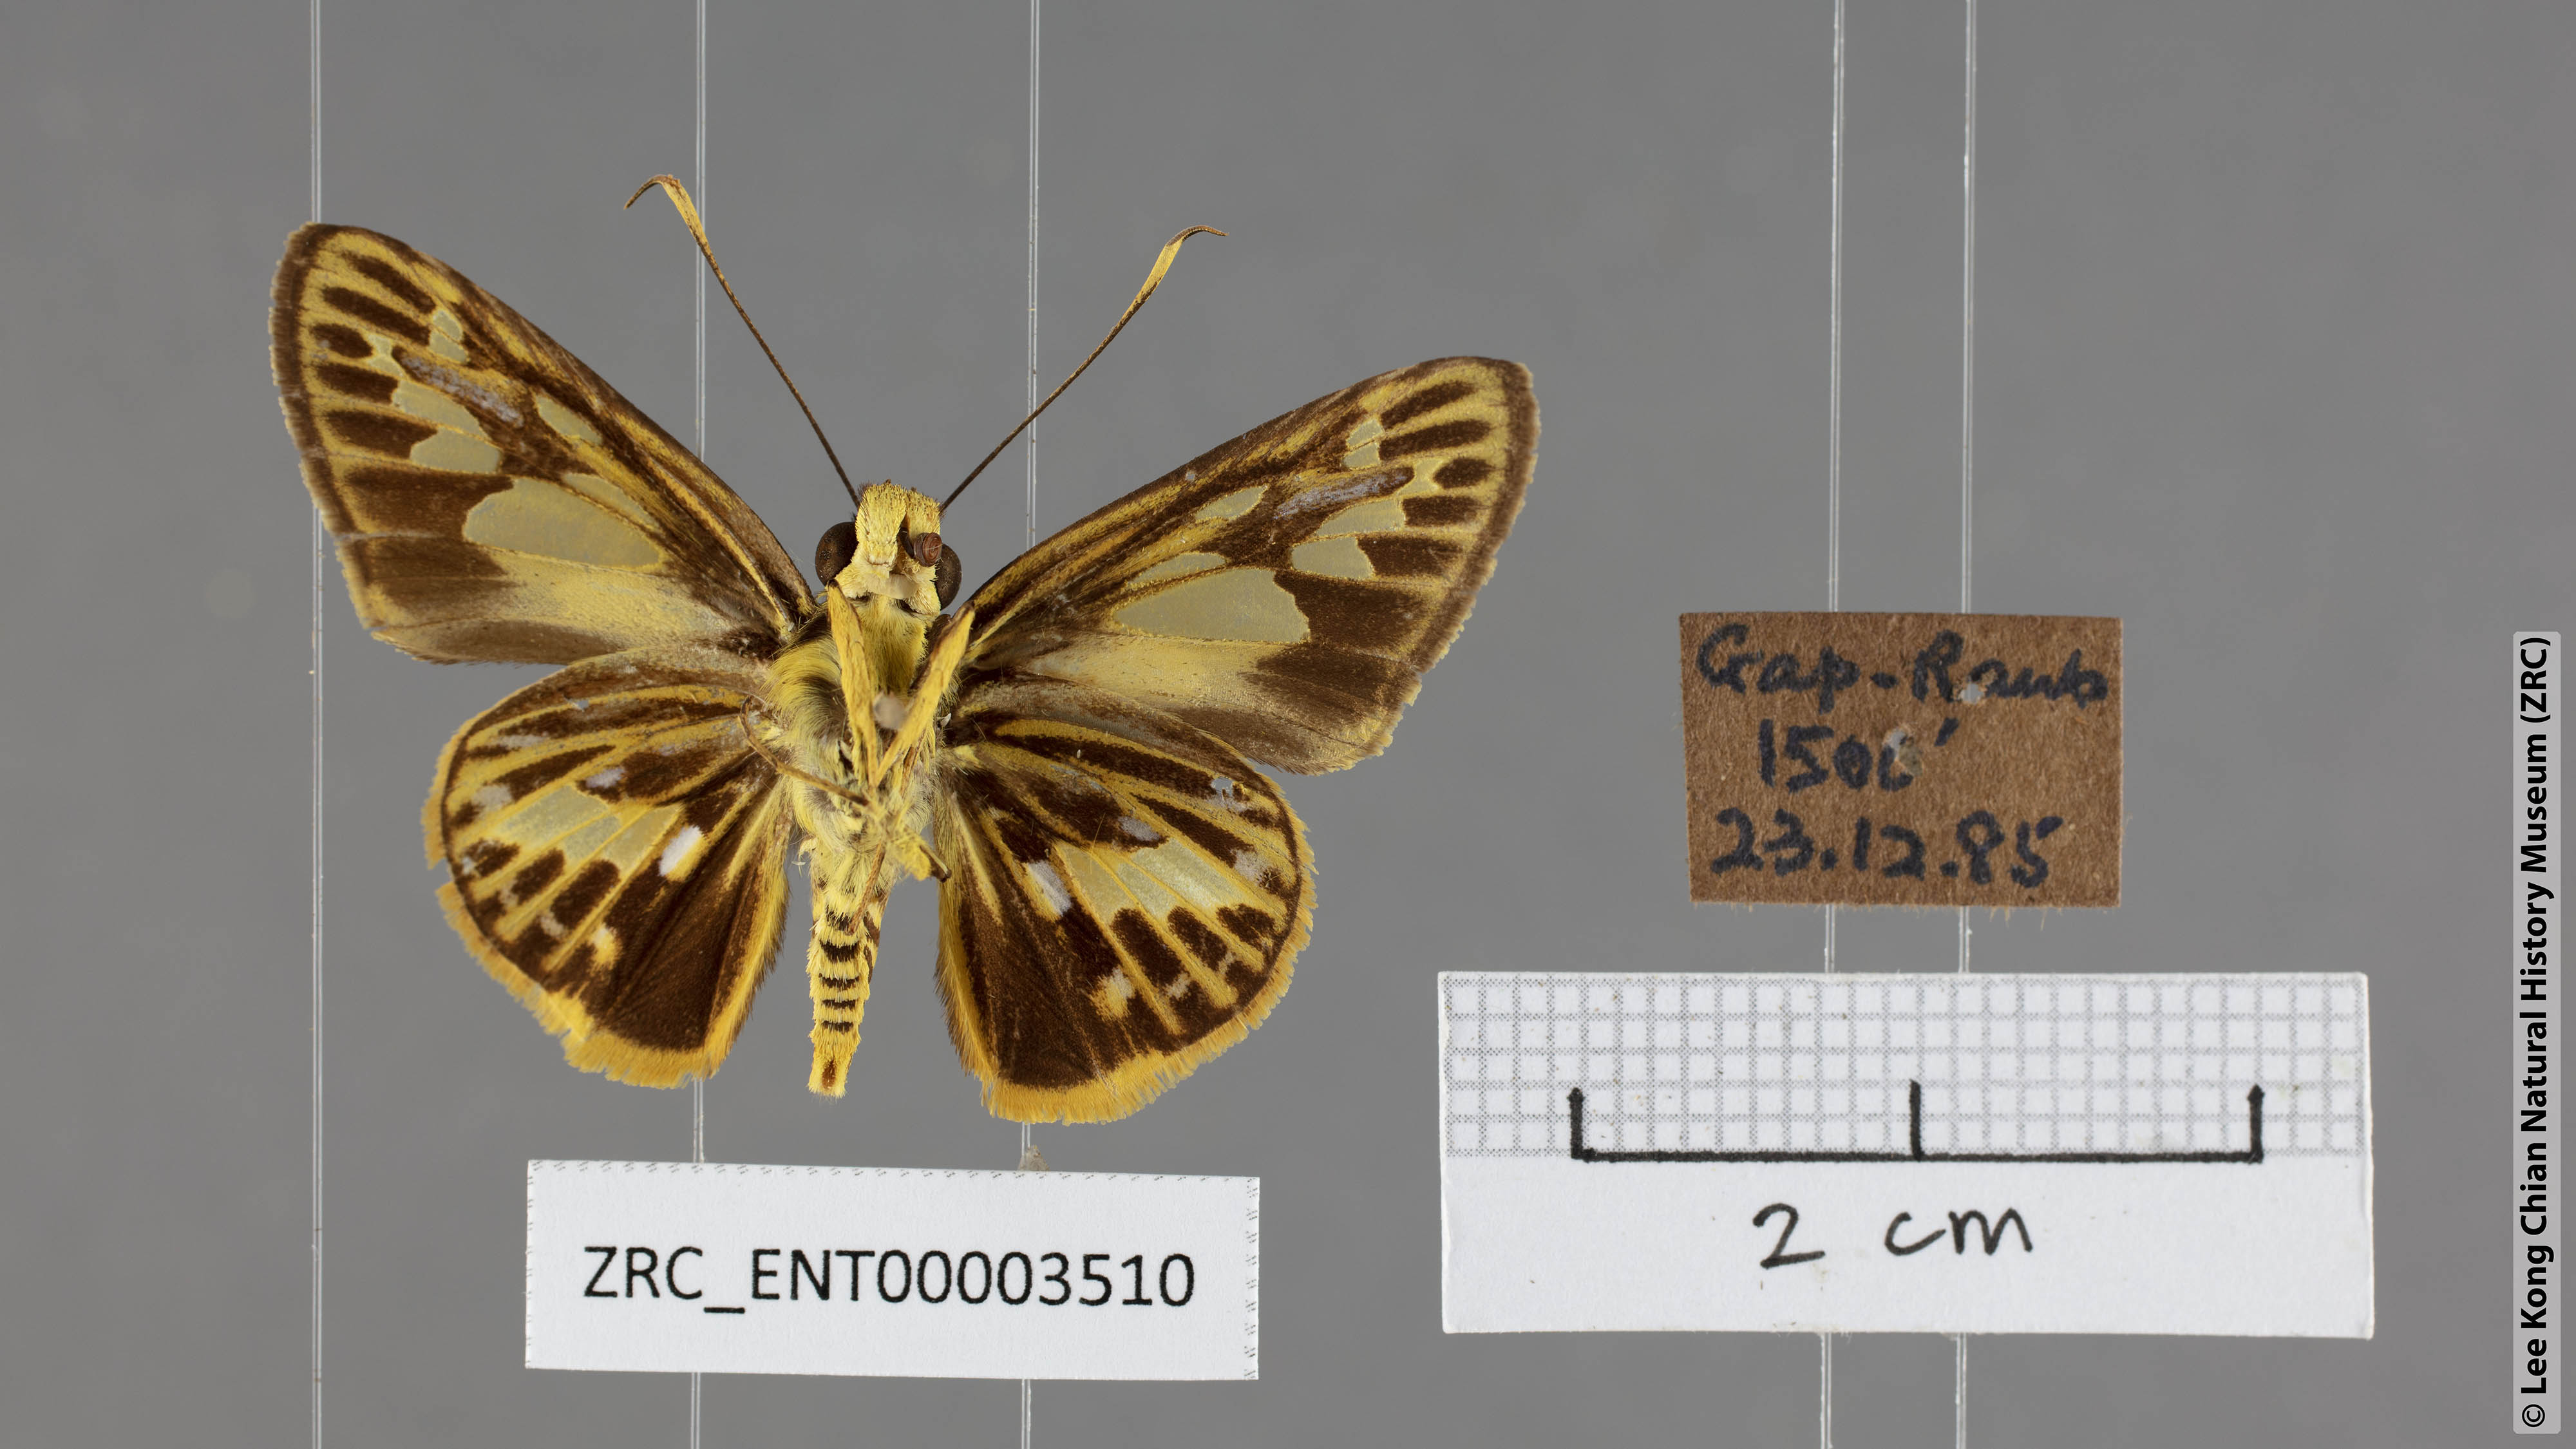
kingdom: Animalia
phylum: Arthropoda
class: Insecta
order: Lepidoptera
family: Hesperiidae
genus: Pyroneura
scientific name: Pyroneura latoia
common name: Yellow vein lancer
